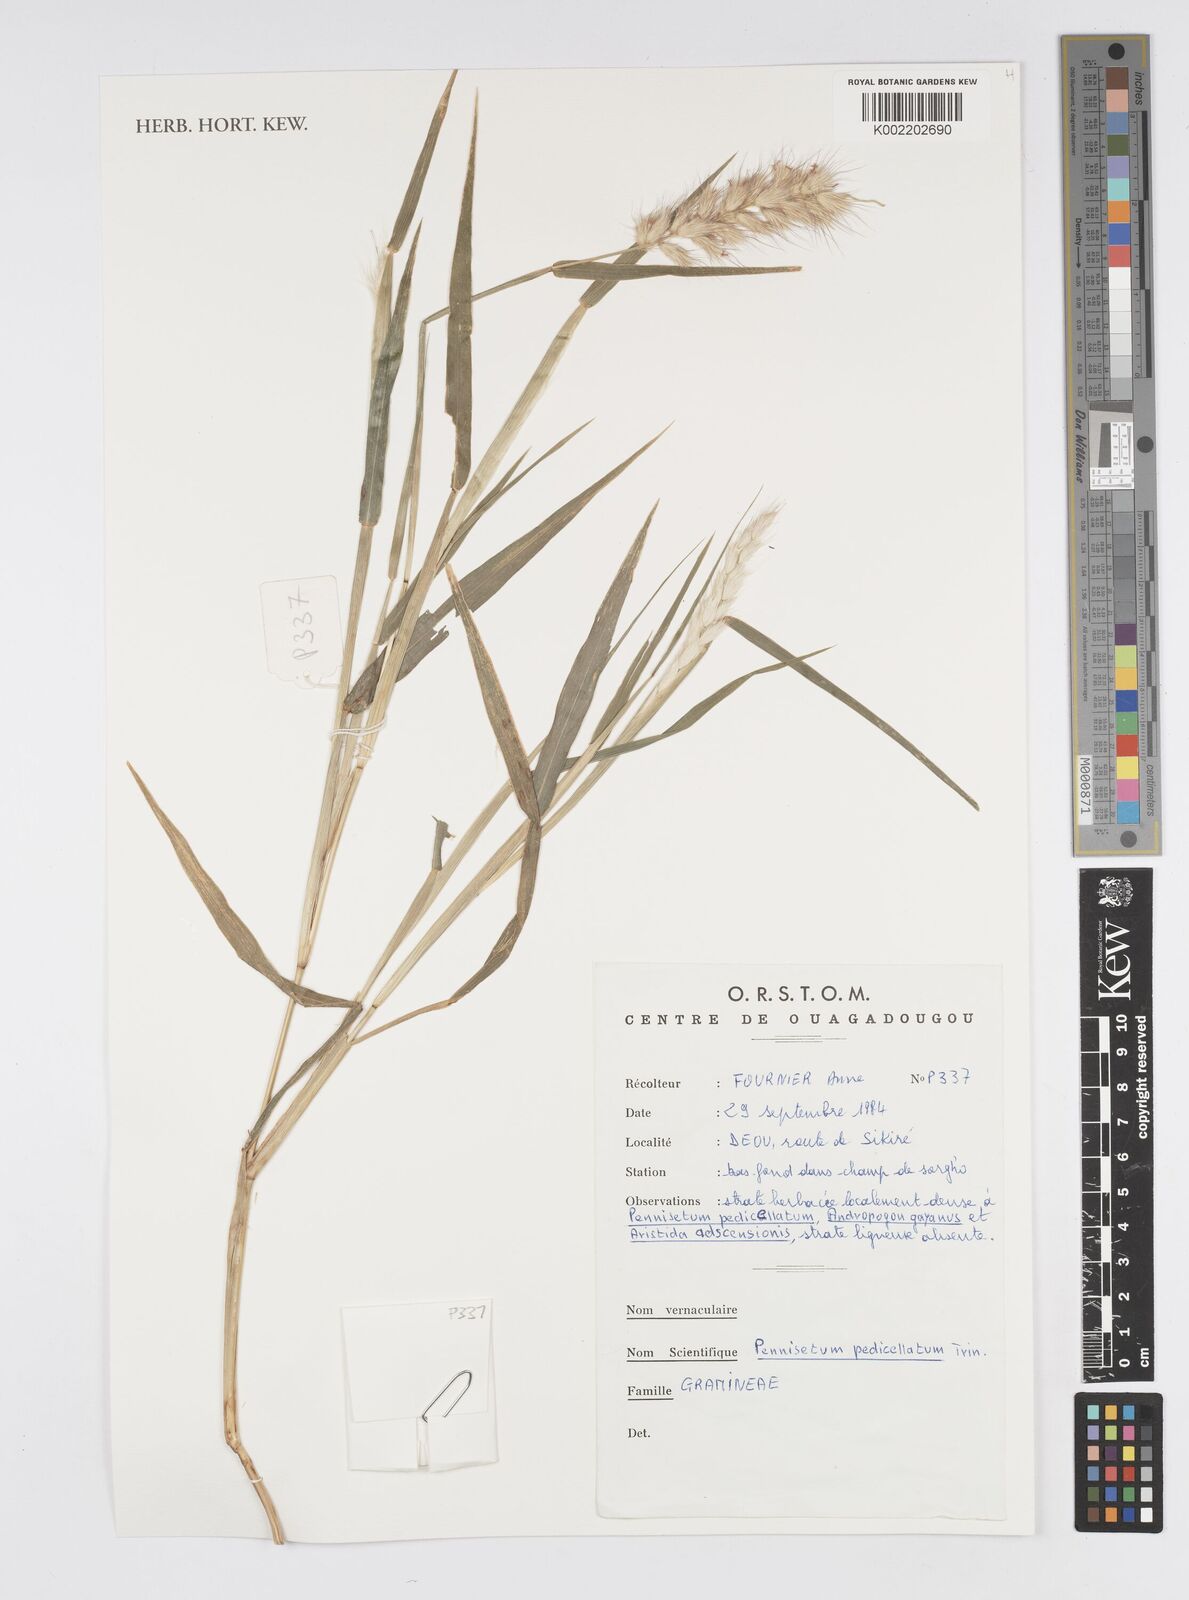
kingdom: Plantae
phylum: Tracheophyta
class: Liliopsida
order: Poales
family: Poaceae
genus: Cenchrus
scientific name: Cenchrus pedicellatus
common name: Hairy fountain grass
